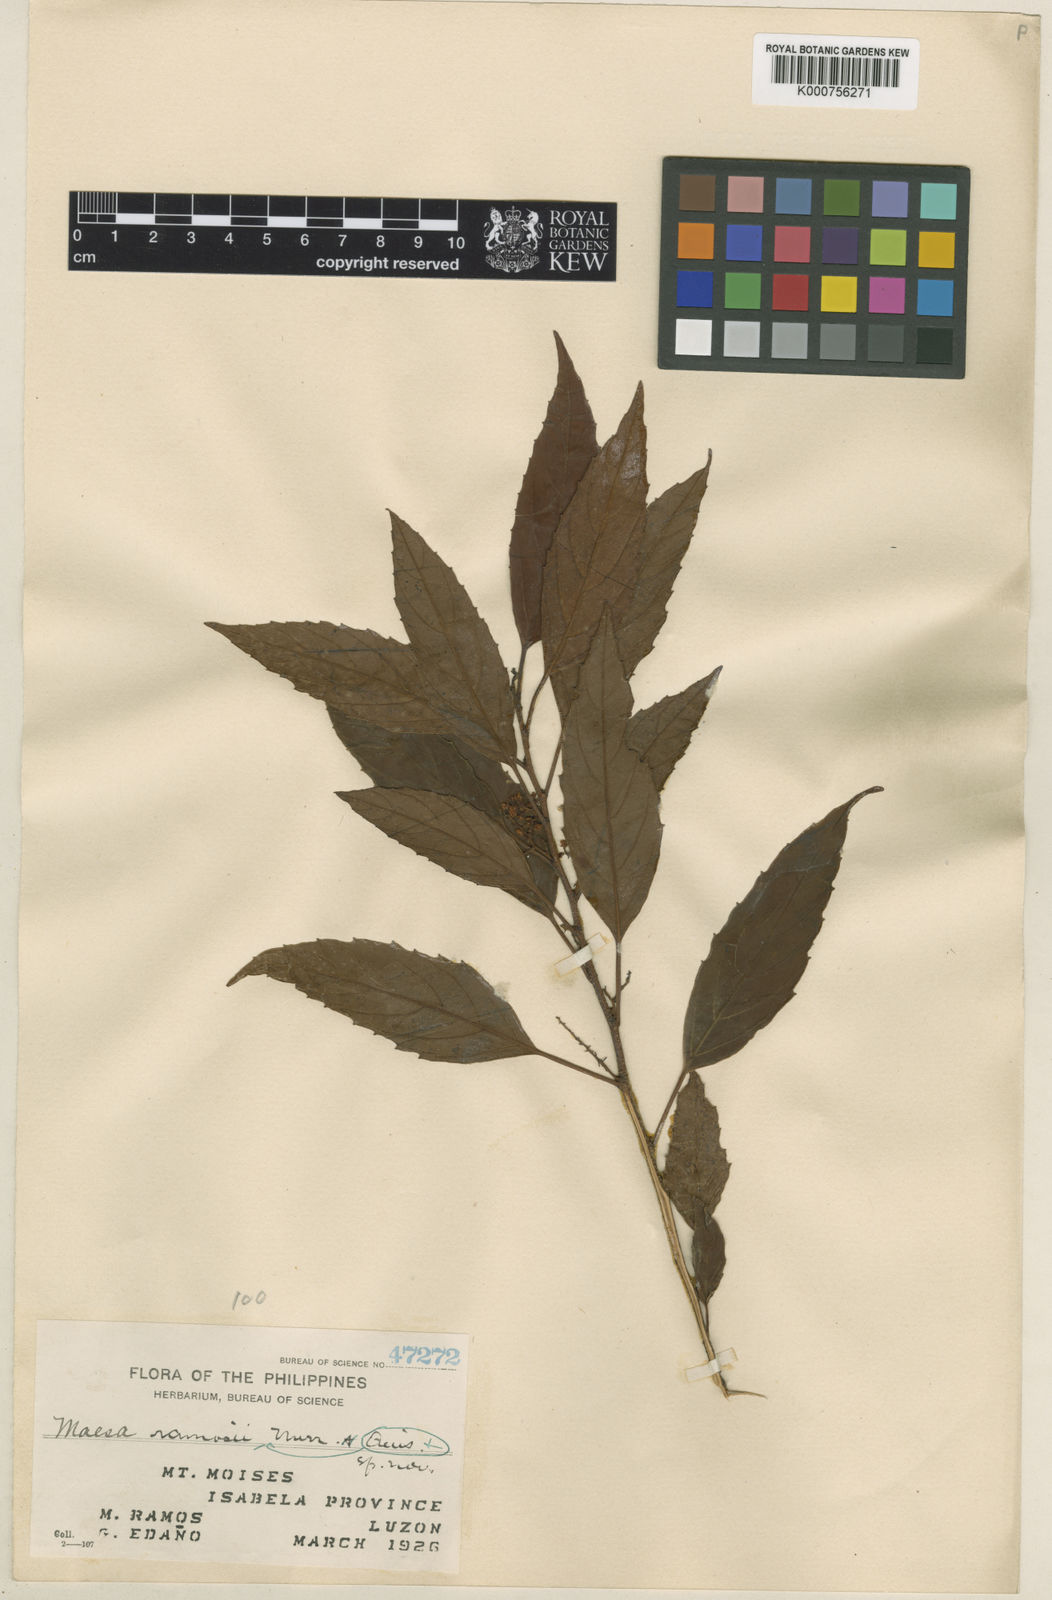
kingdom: Plantae
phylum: Tracheophyta
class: Magnoliopsida
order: Ericales
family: Primulaceae
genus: Maesa
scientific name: Maesa indica
